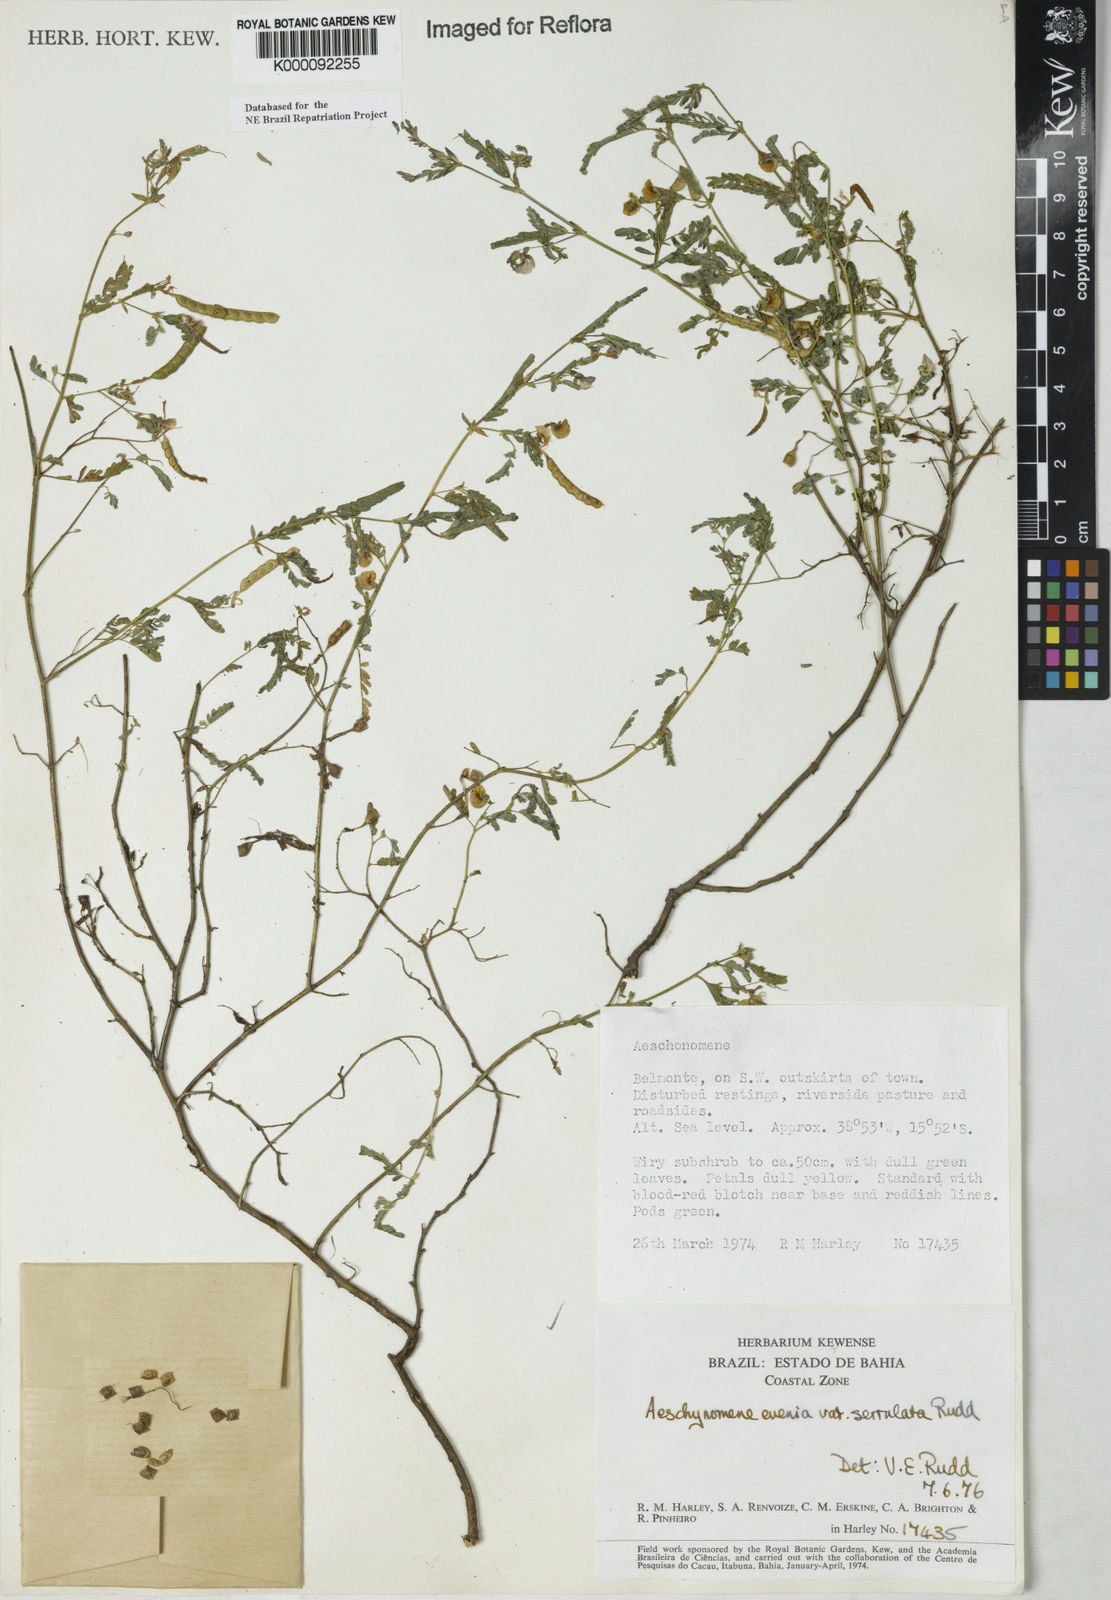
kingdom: Plantae
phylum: Tracheophyta
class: Magnoliopsida
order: Fabales
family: Fabaceae
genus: Aeschynomene
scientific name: Aeschynomene evenia
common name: Shrubby jointvetch
